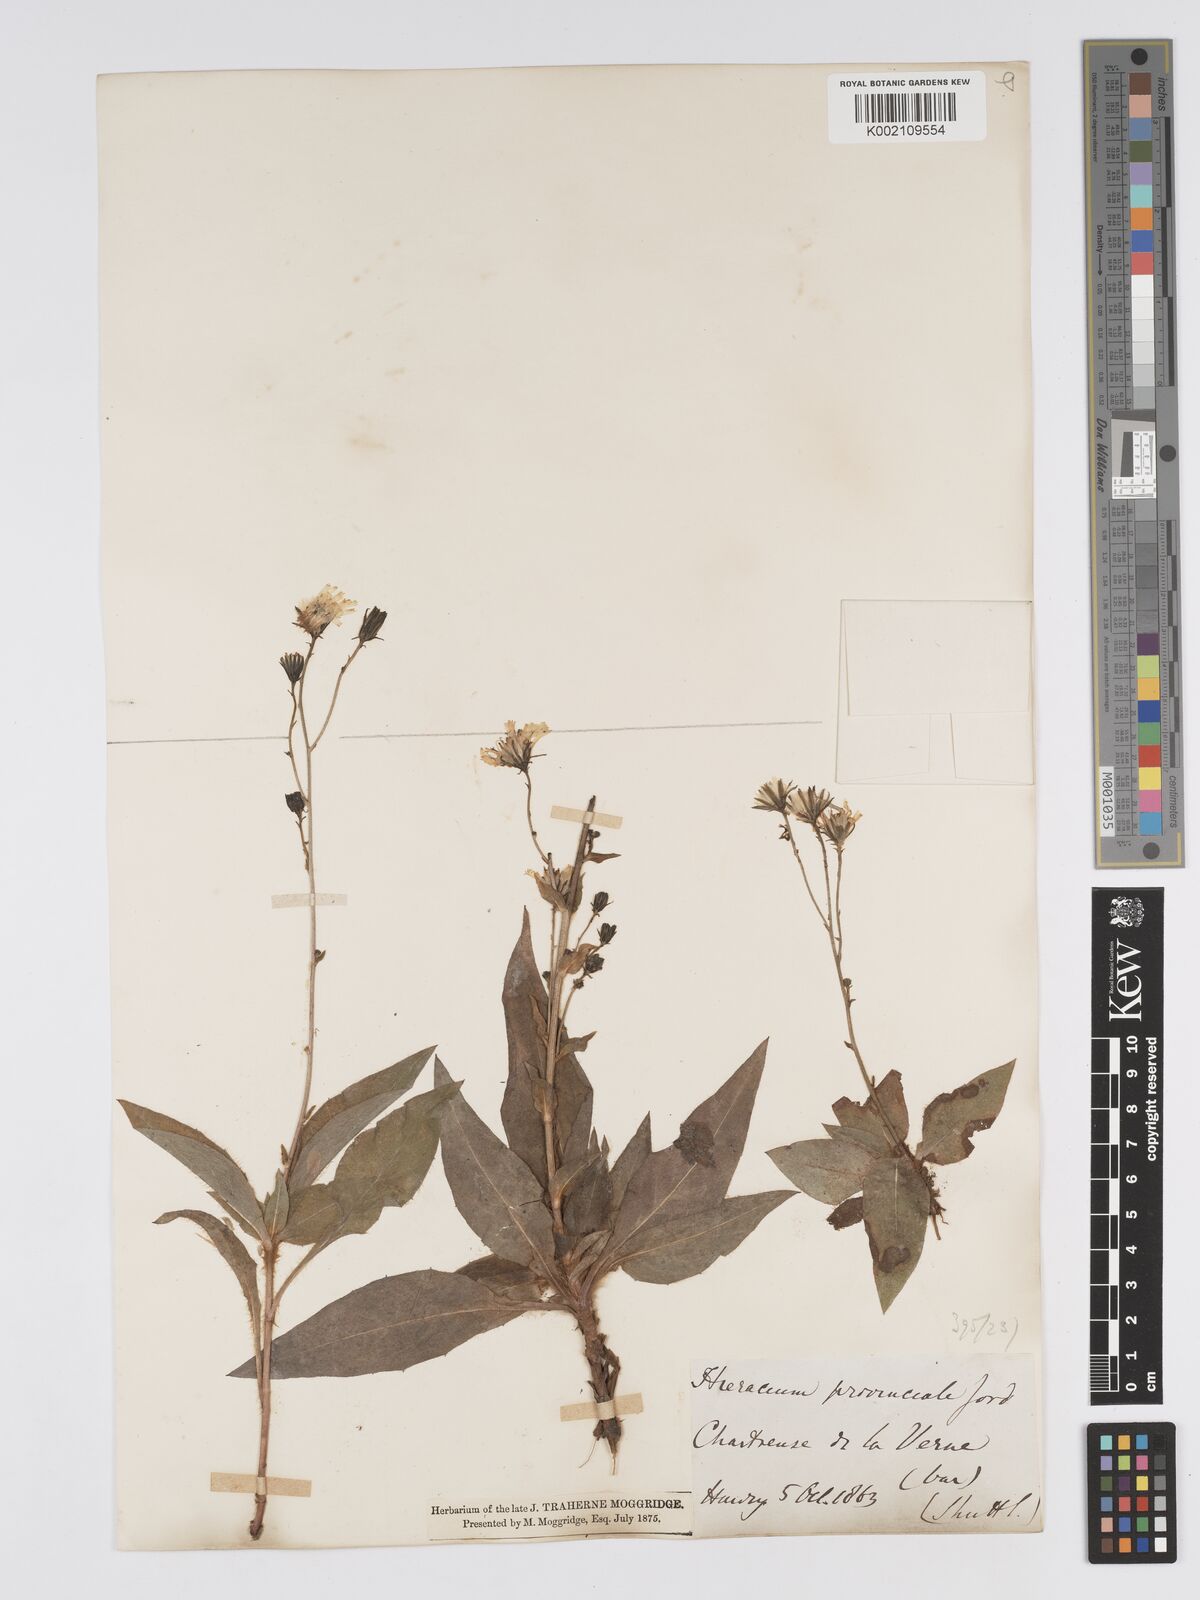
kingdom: Plantae
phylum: Tracheophyta
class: Magnoliopsida
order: Asterales
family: Asteraceae
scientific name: Asteraceae
